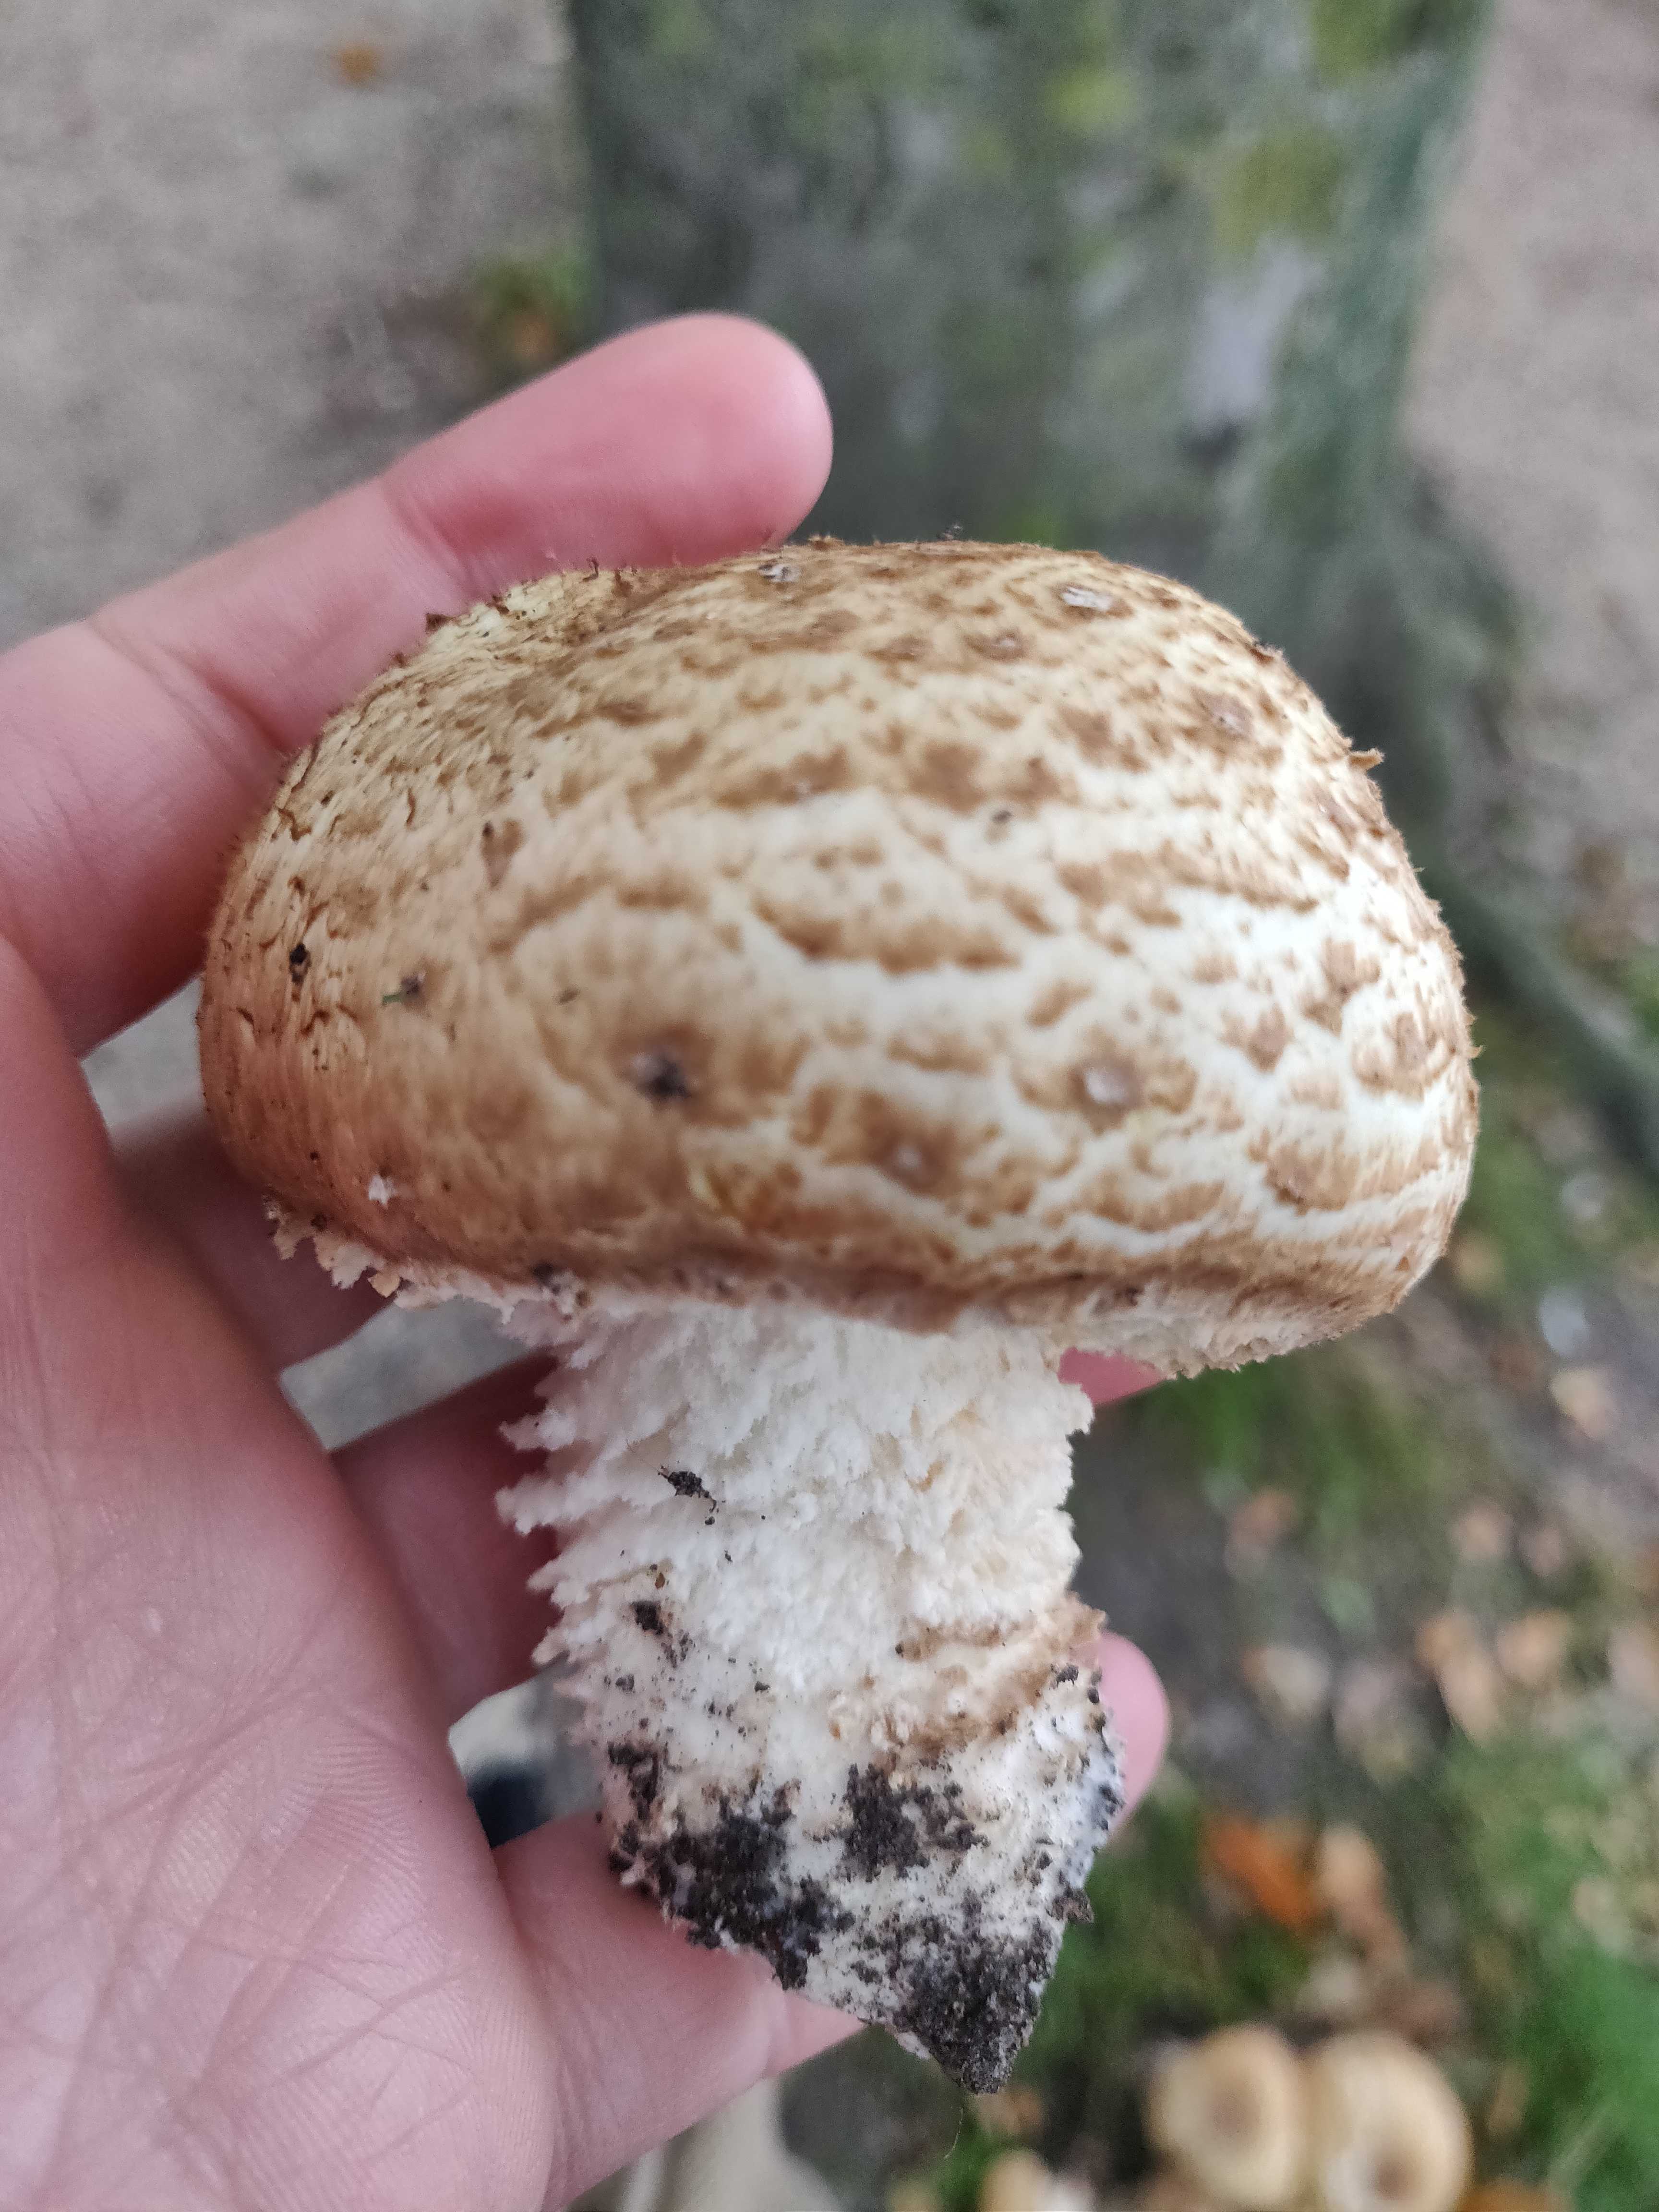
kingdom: Fungi
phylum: Basidiomycota
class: Agaricomycetes
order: Agaricales
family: Agaricaceae
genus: Agaricus
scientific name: Agaricus
